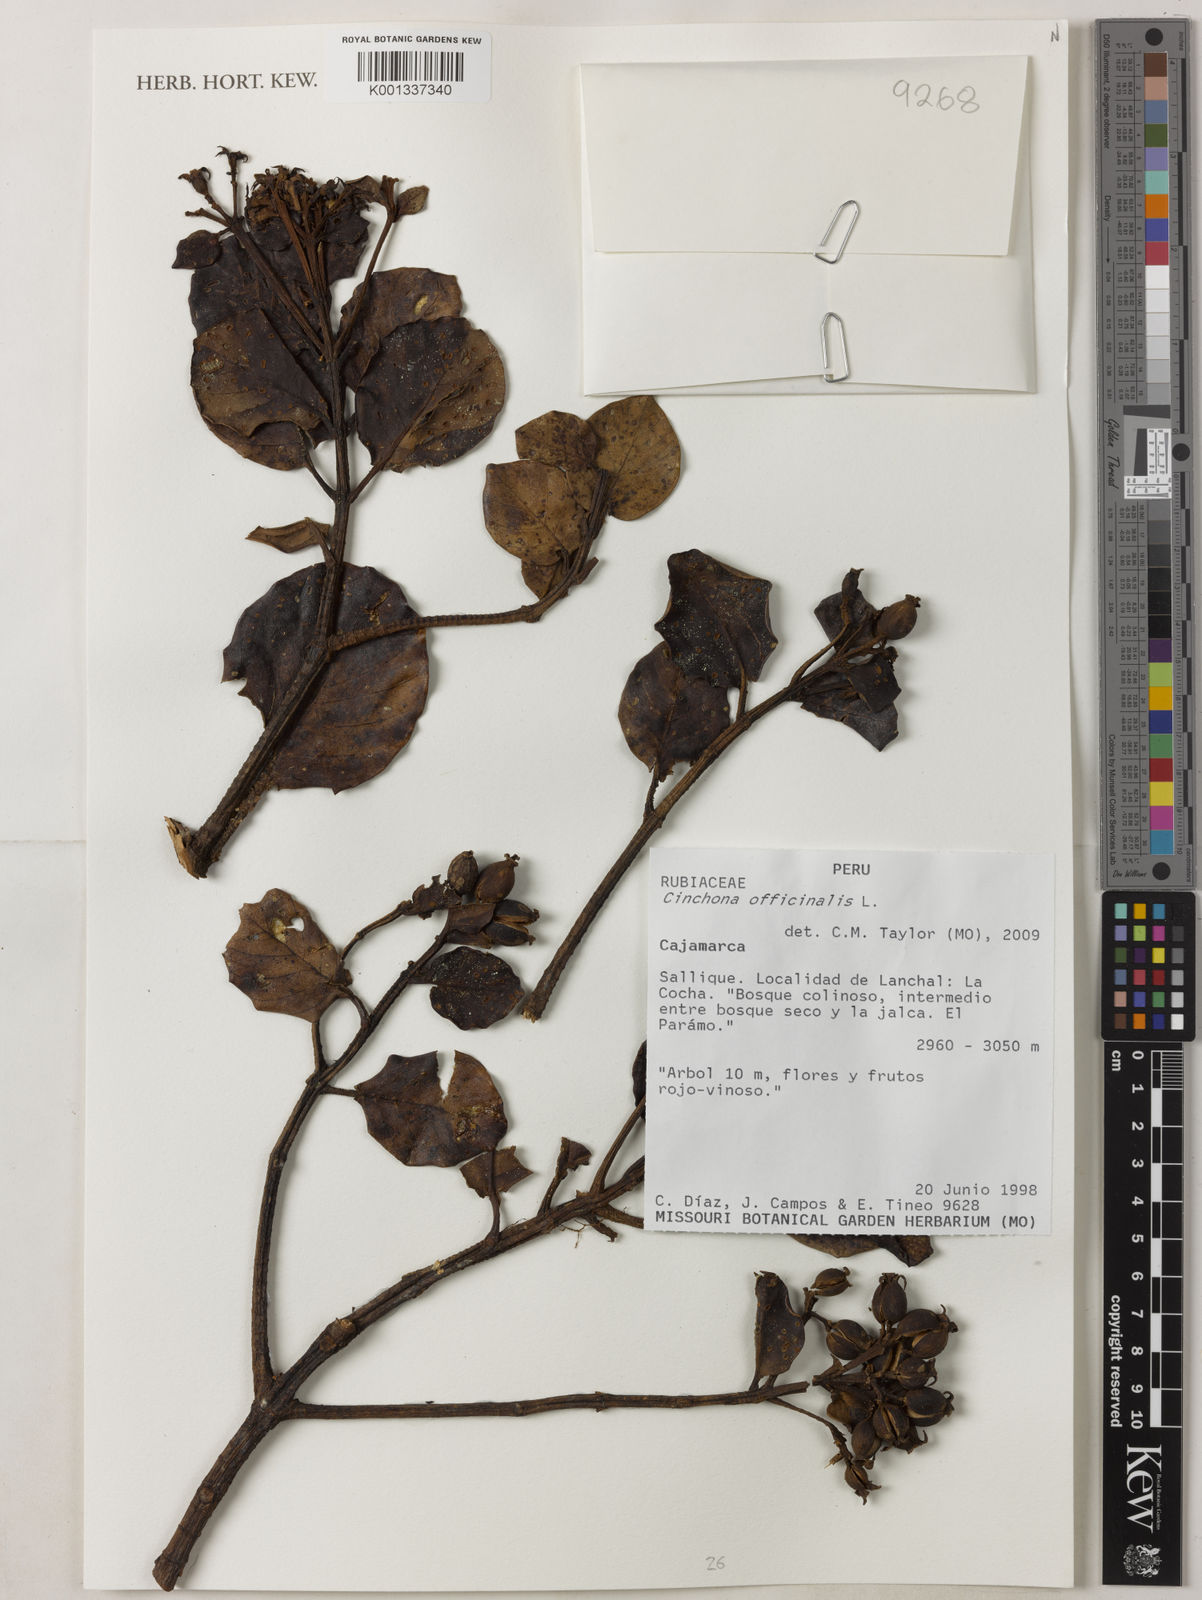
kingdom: Plantae
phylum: Tracheophyta
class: Magnoliopsida
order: Gentianales
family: Rubiaceae
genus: Cinchona
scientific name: Cinchona officinalis
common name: Lojabark
